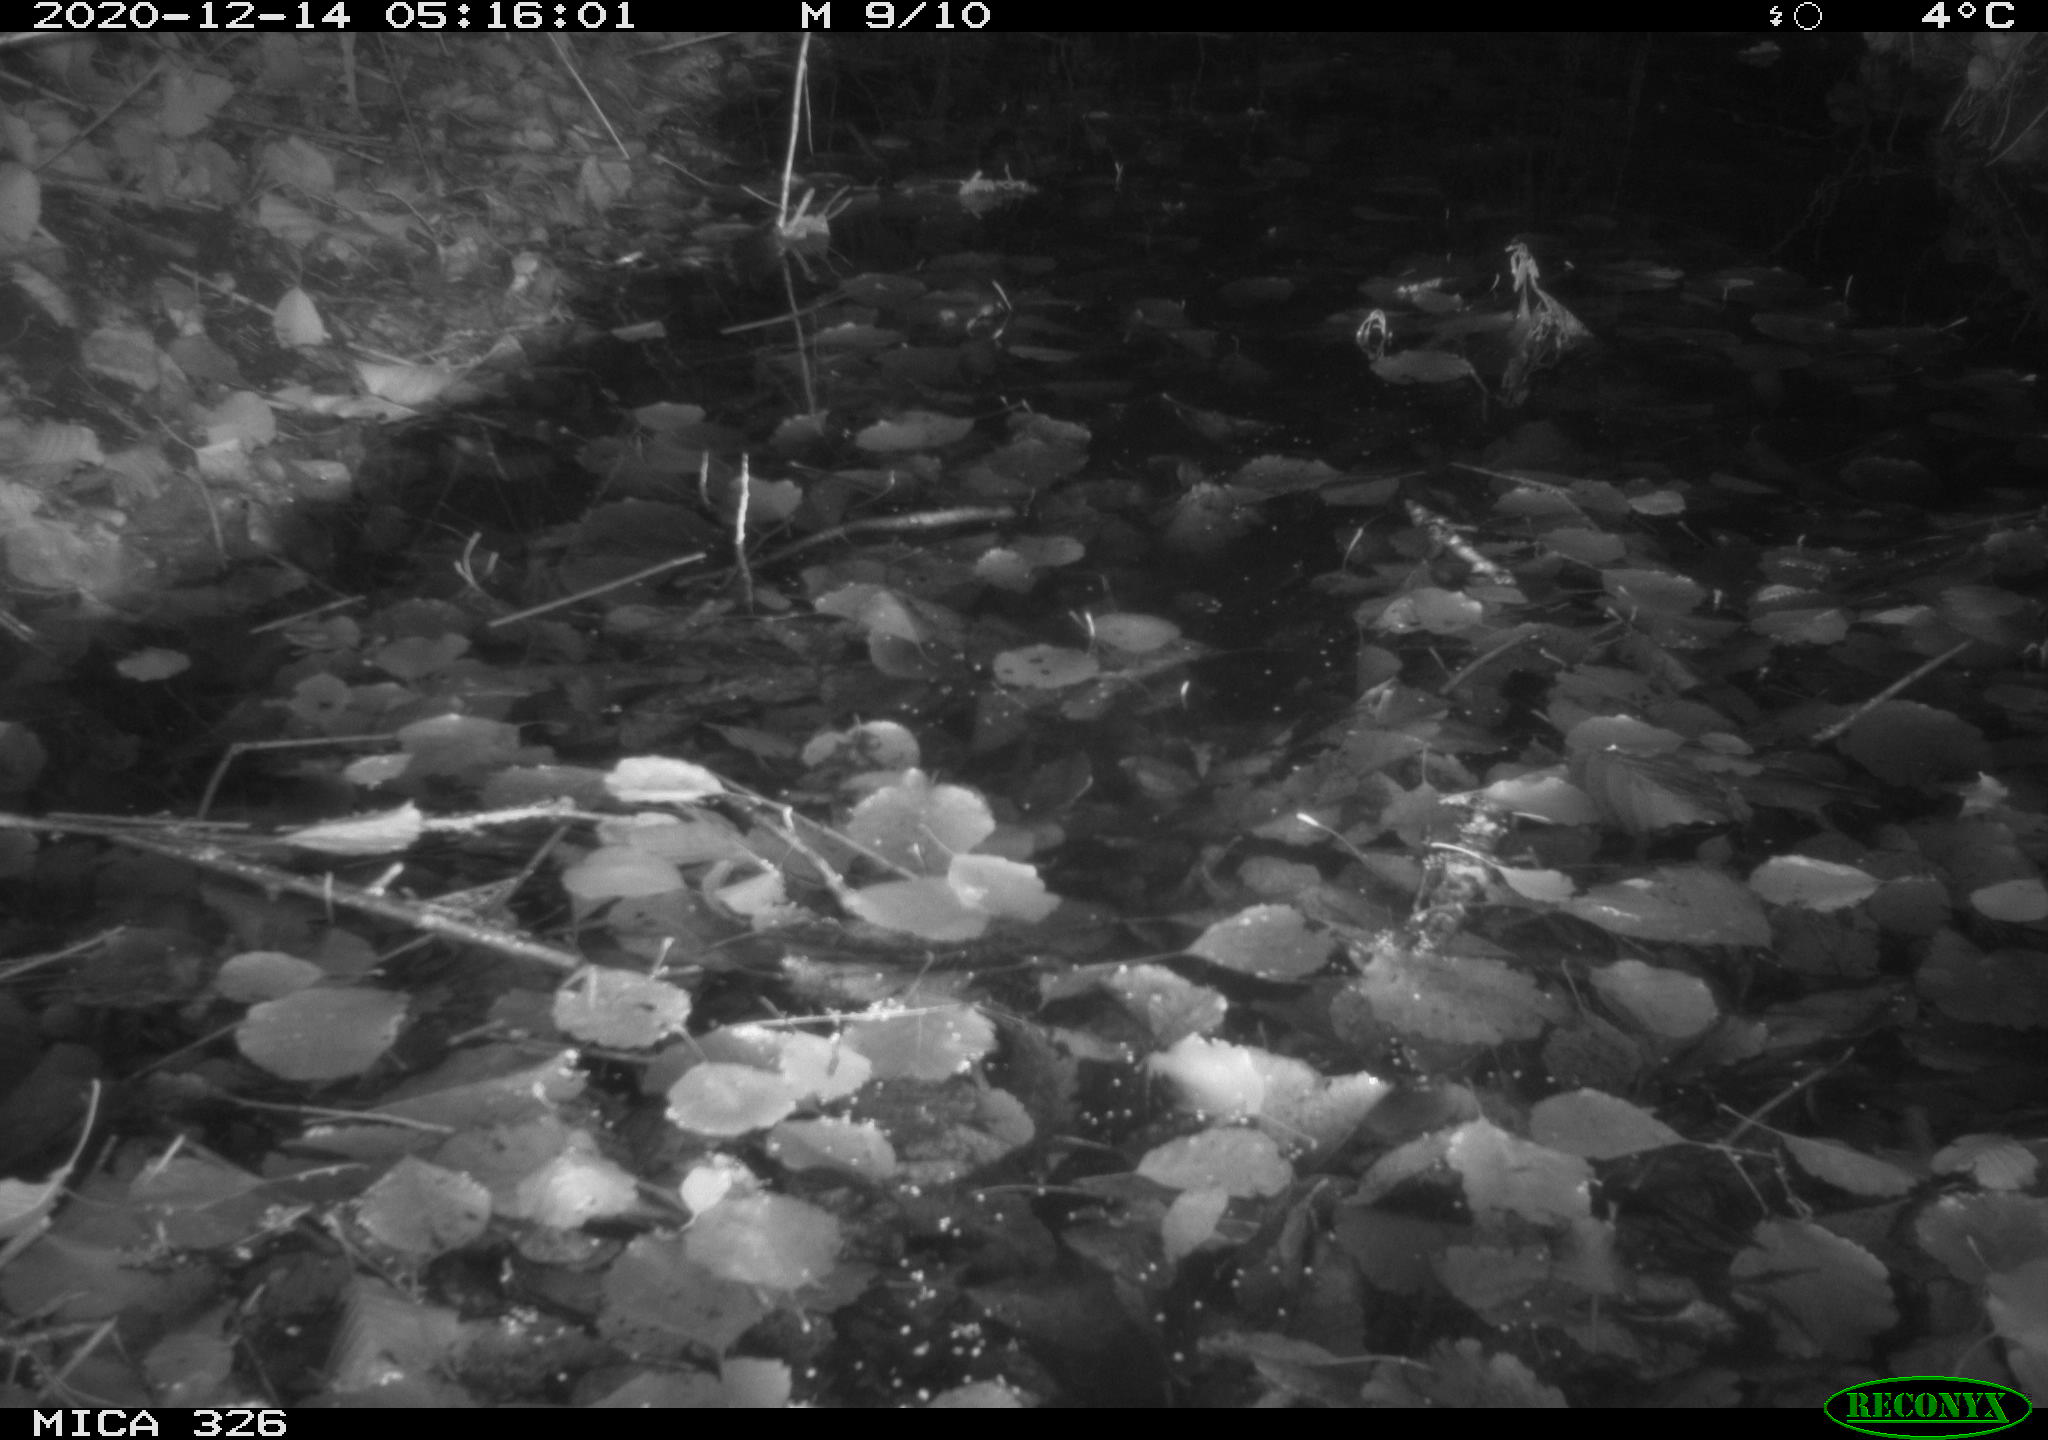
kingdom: Animalia
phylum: Chordata
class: Mammalia
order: Rodentia
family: Cricetidae
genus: Ondatra
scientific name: Ondatra zibethicus
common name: Muskrat
